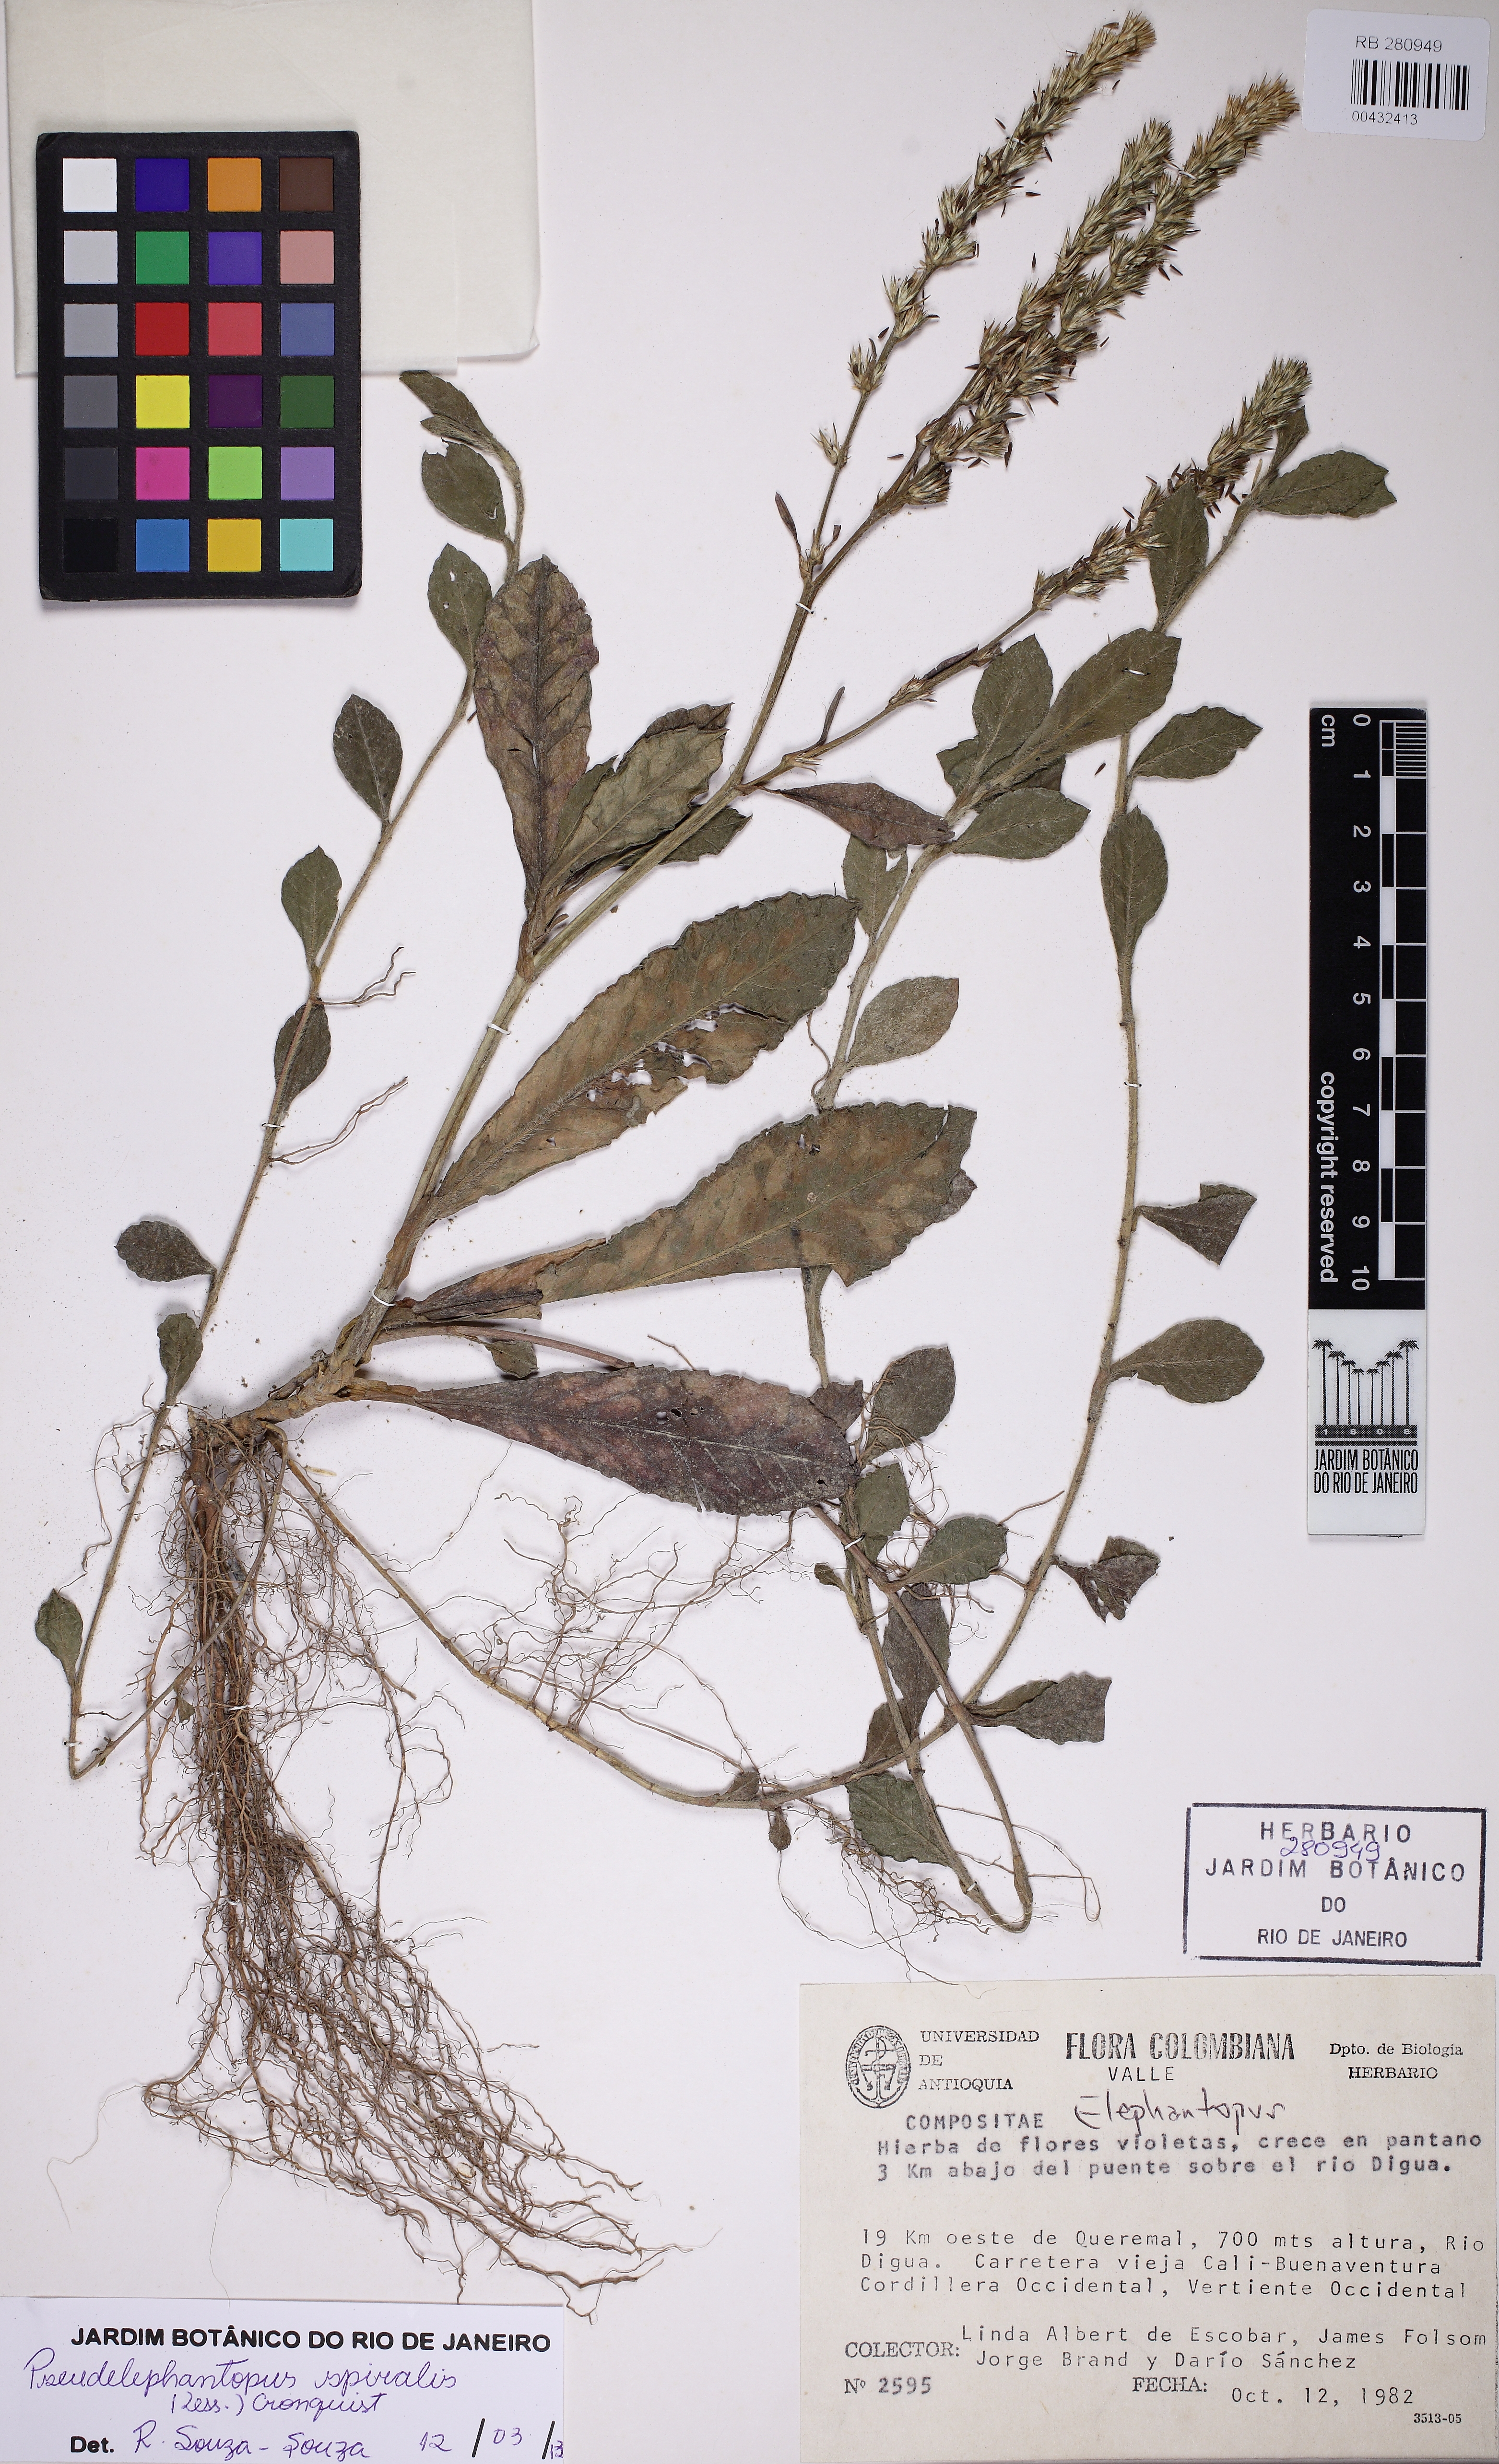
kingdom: Plantae
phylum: Tracheophyta
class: Magnoliopsida
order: Asterales
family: Asteraceae
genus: Pseudelephantopus
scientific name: Pseudelephantopus spiralis
